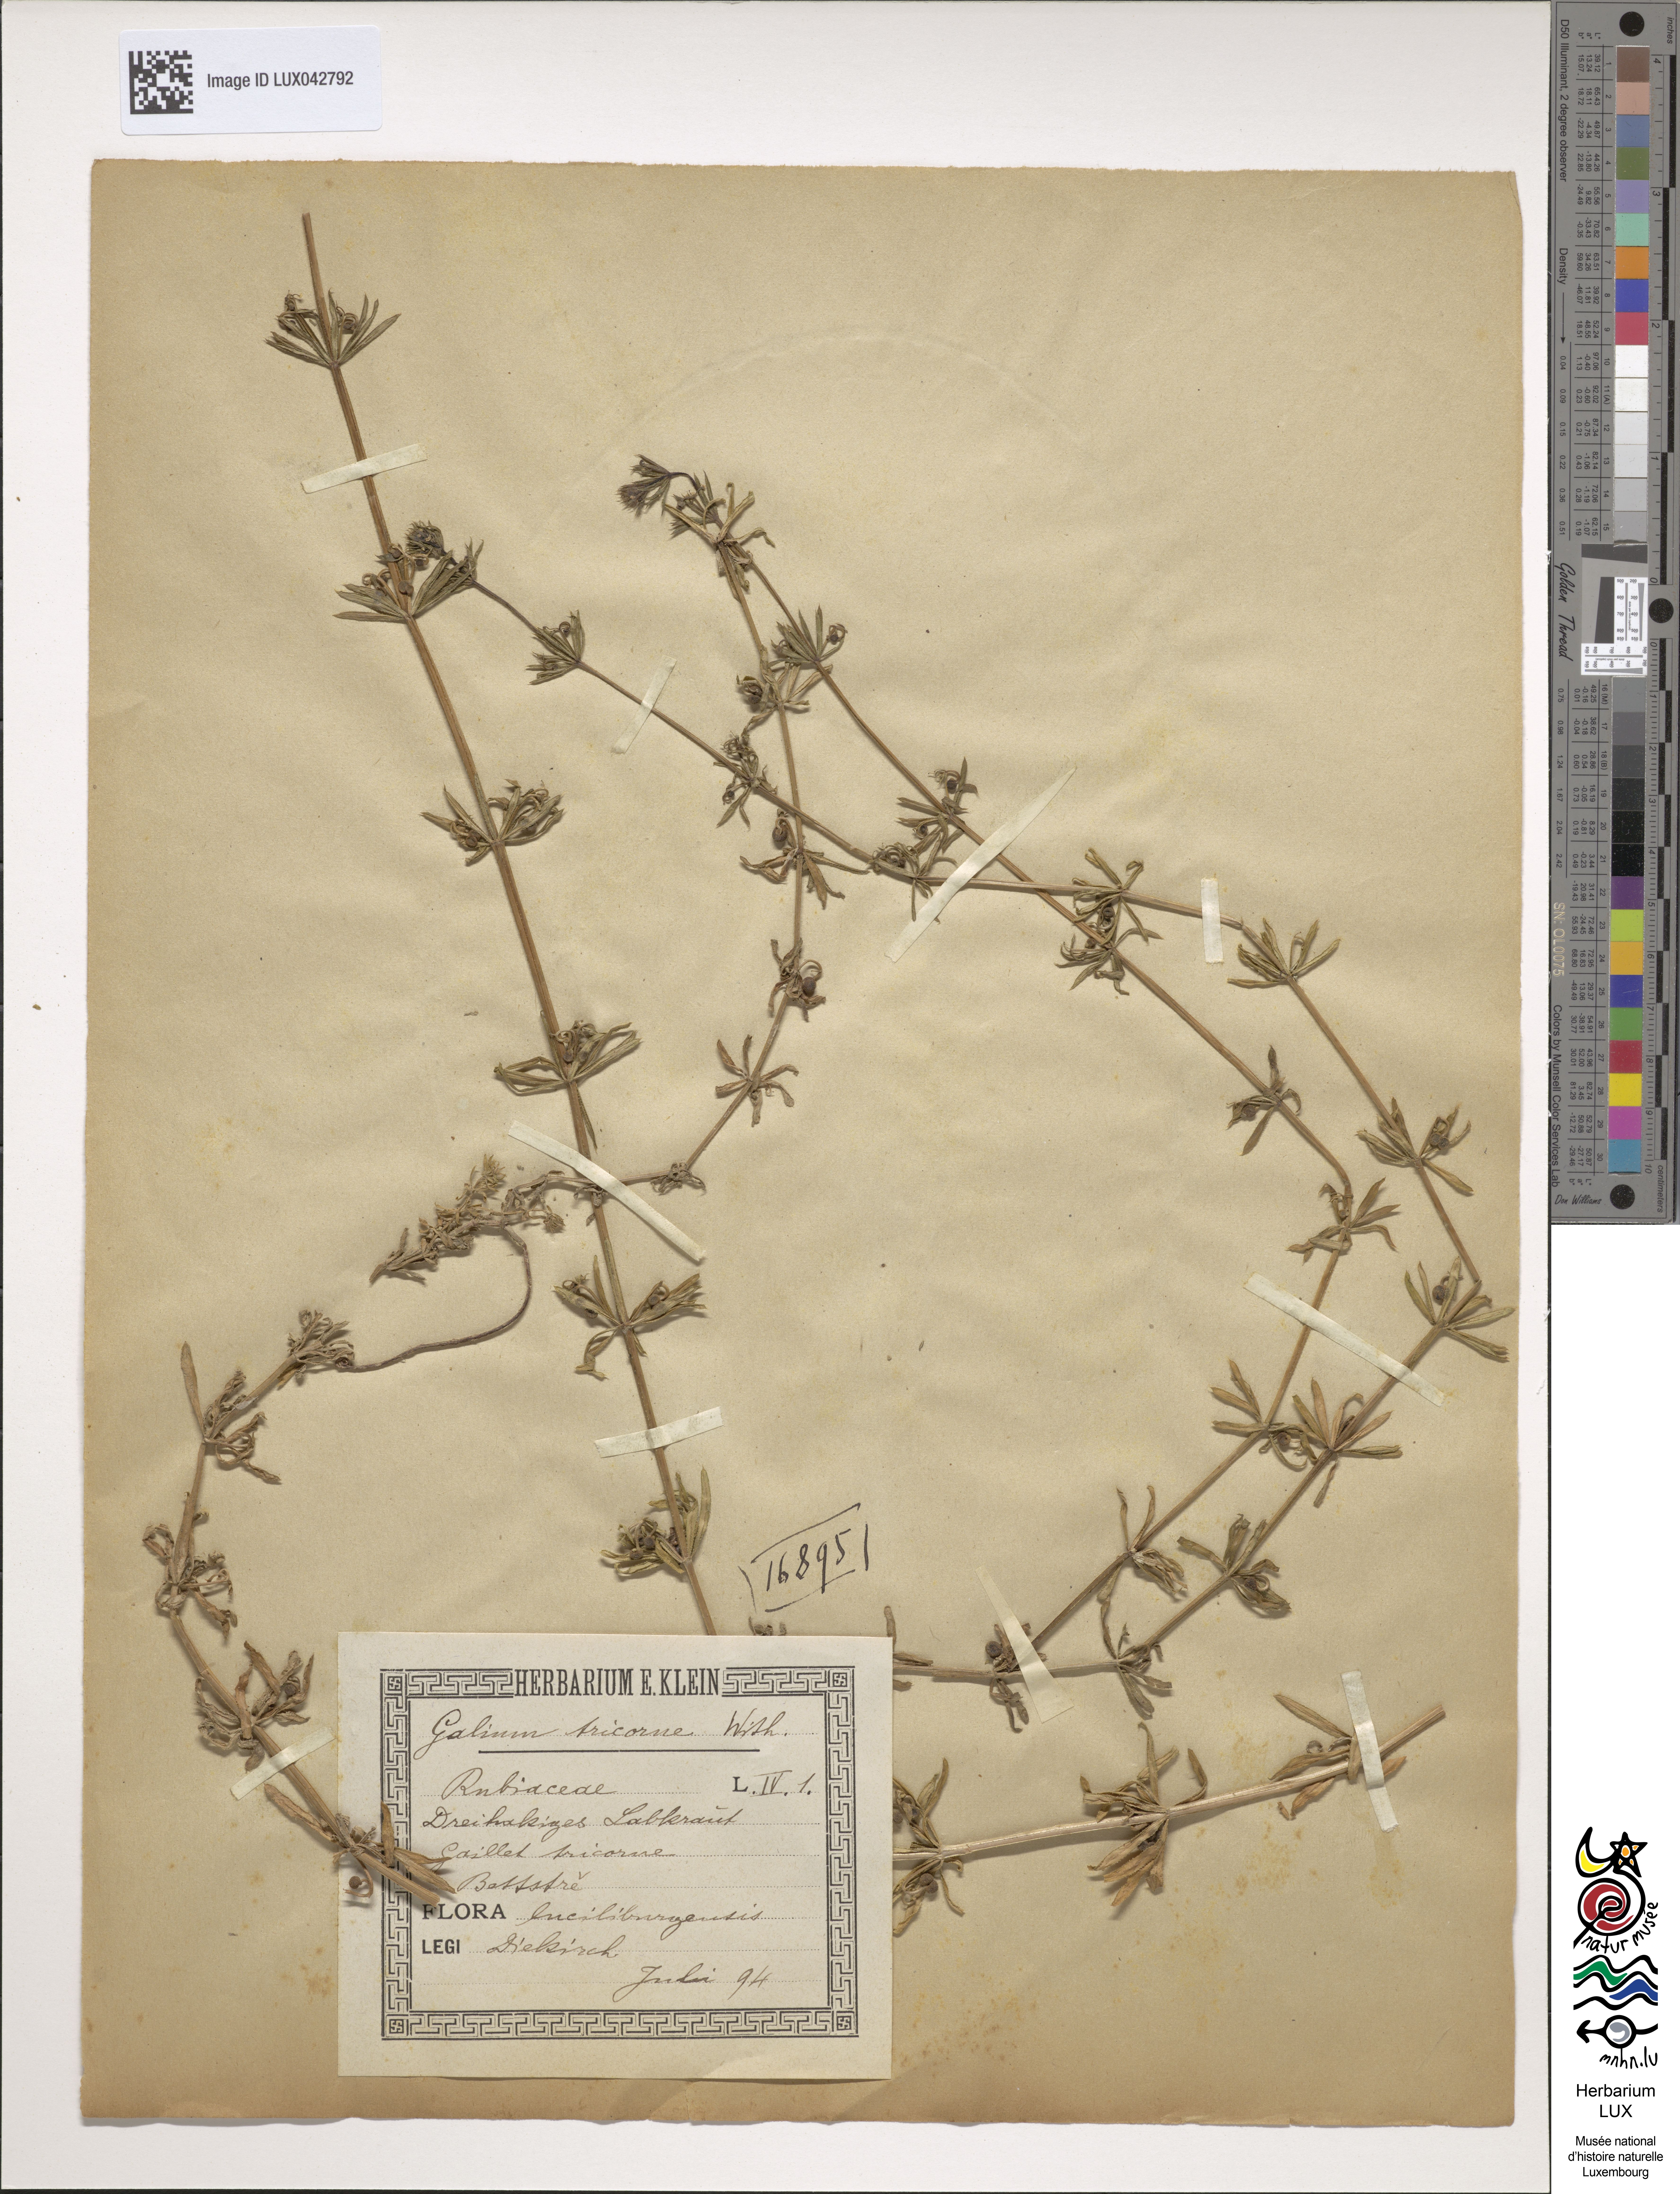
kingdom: Plantae
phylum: Tracheophyta
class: Magnoliopsida
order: Gentianales
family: Rubiaceae
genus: Galium
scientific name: Galium tricornutum
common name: Corn cleavers
